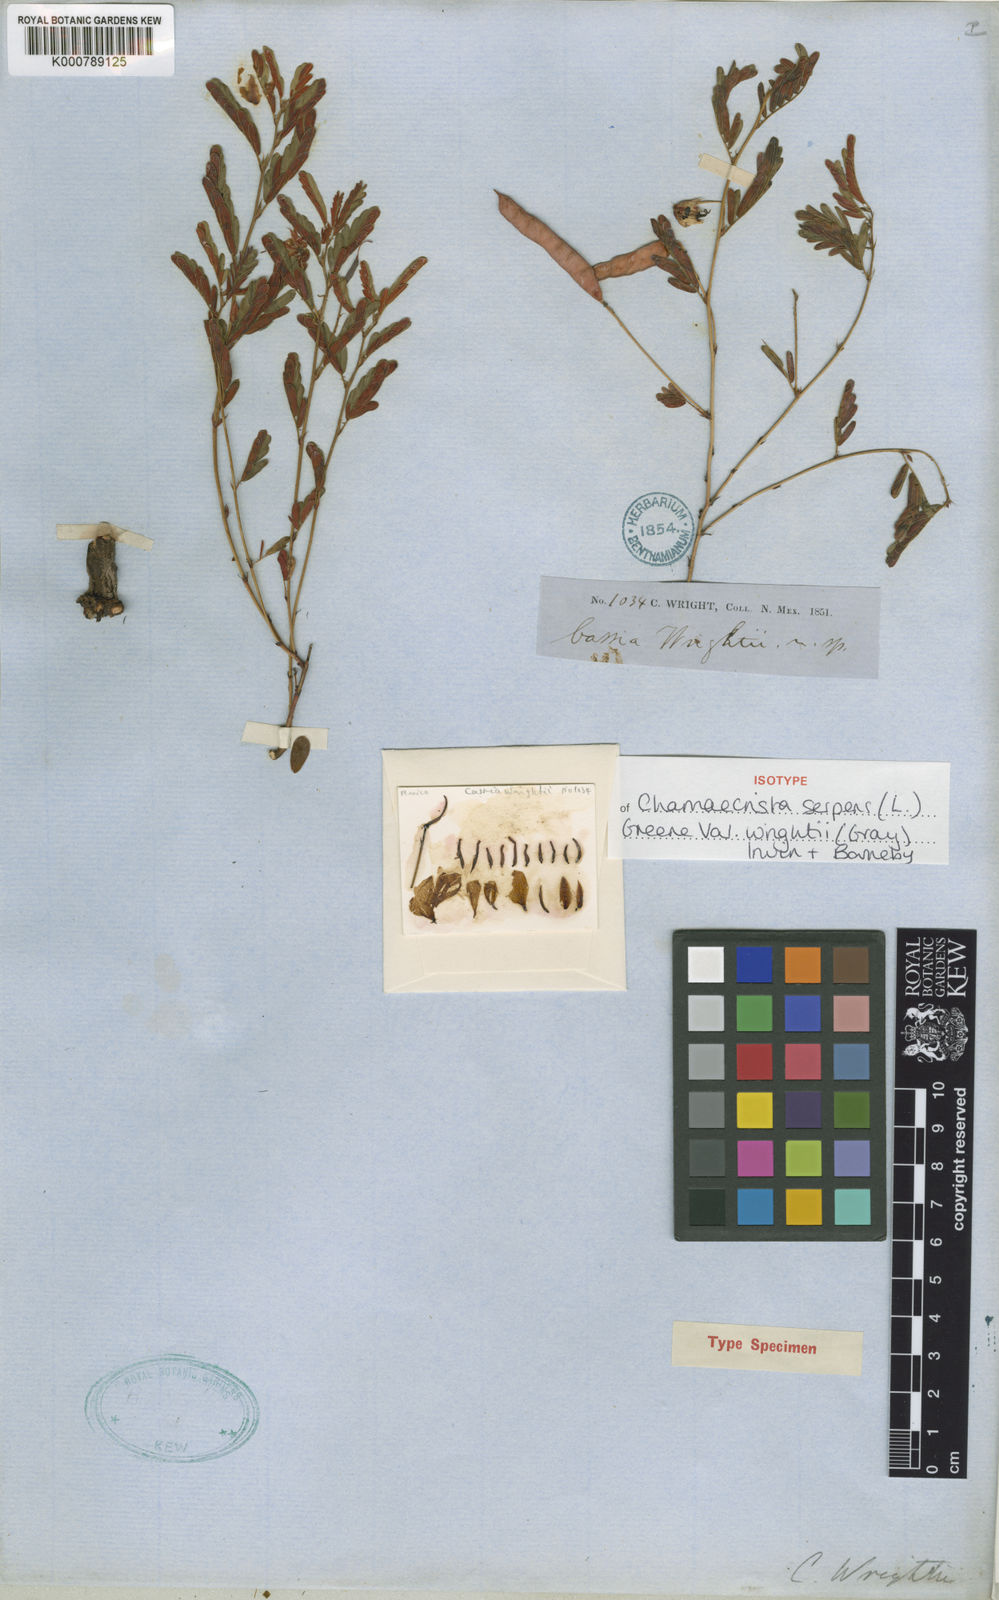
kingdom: Plantae
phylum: Tracheophyta
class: Magnoliopsida
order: Fabales
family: Fabaceae
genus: Chamaecrista
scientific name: Chamaecrista serpens
